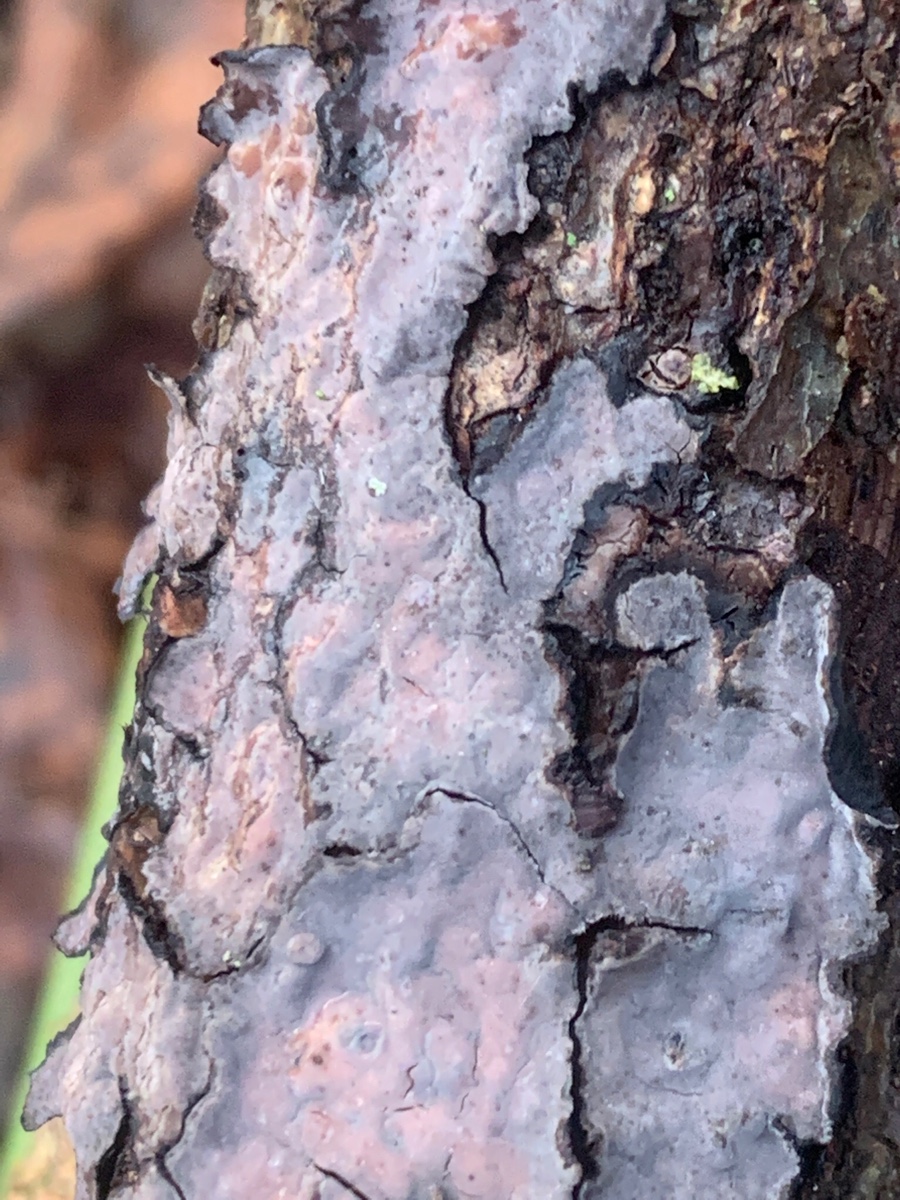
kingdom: Fungi
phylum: Basidiomycota
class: Agaricomycetes
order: Russulales
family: Peniophoraceae
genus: Peniophora
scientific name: Peniophora quercina
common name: ege-voksskind
